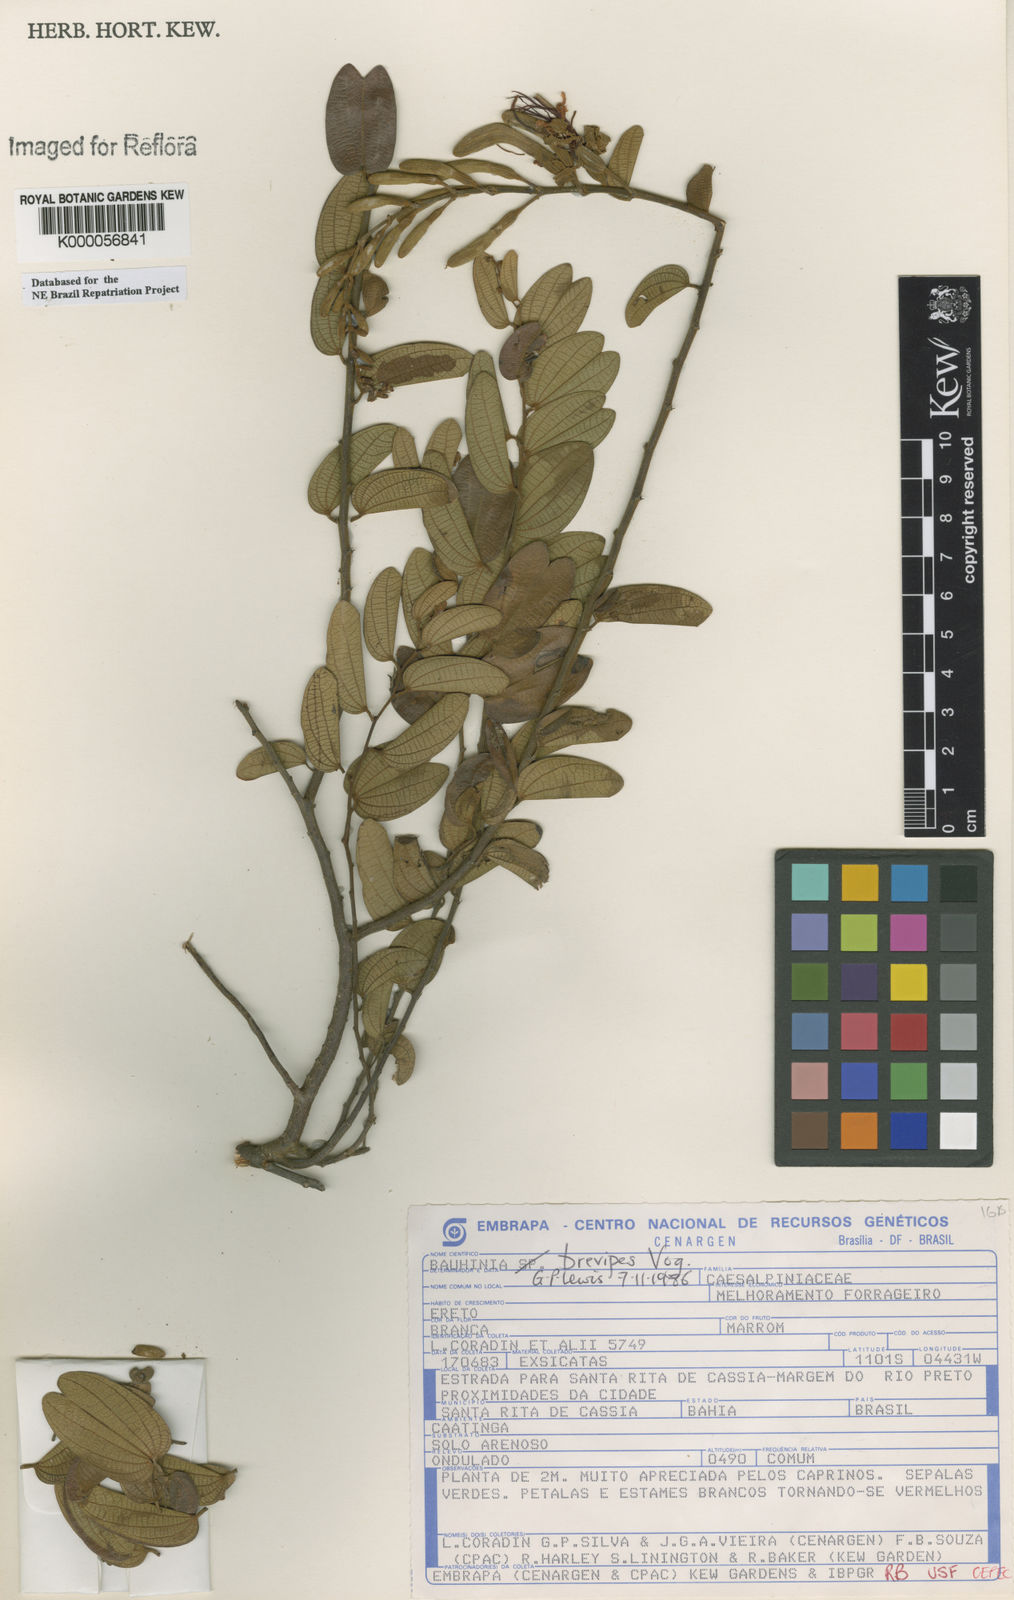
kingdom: Plantae
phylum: Tracheophyta
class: Magnoliopsida
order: Fabales
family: Fabaceae
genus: Bauhinia
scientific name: Bauhinia brevipes
